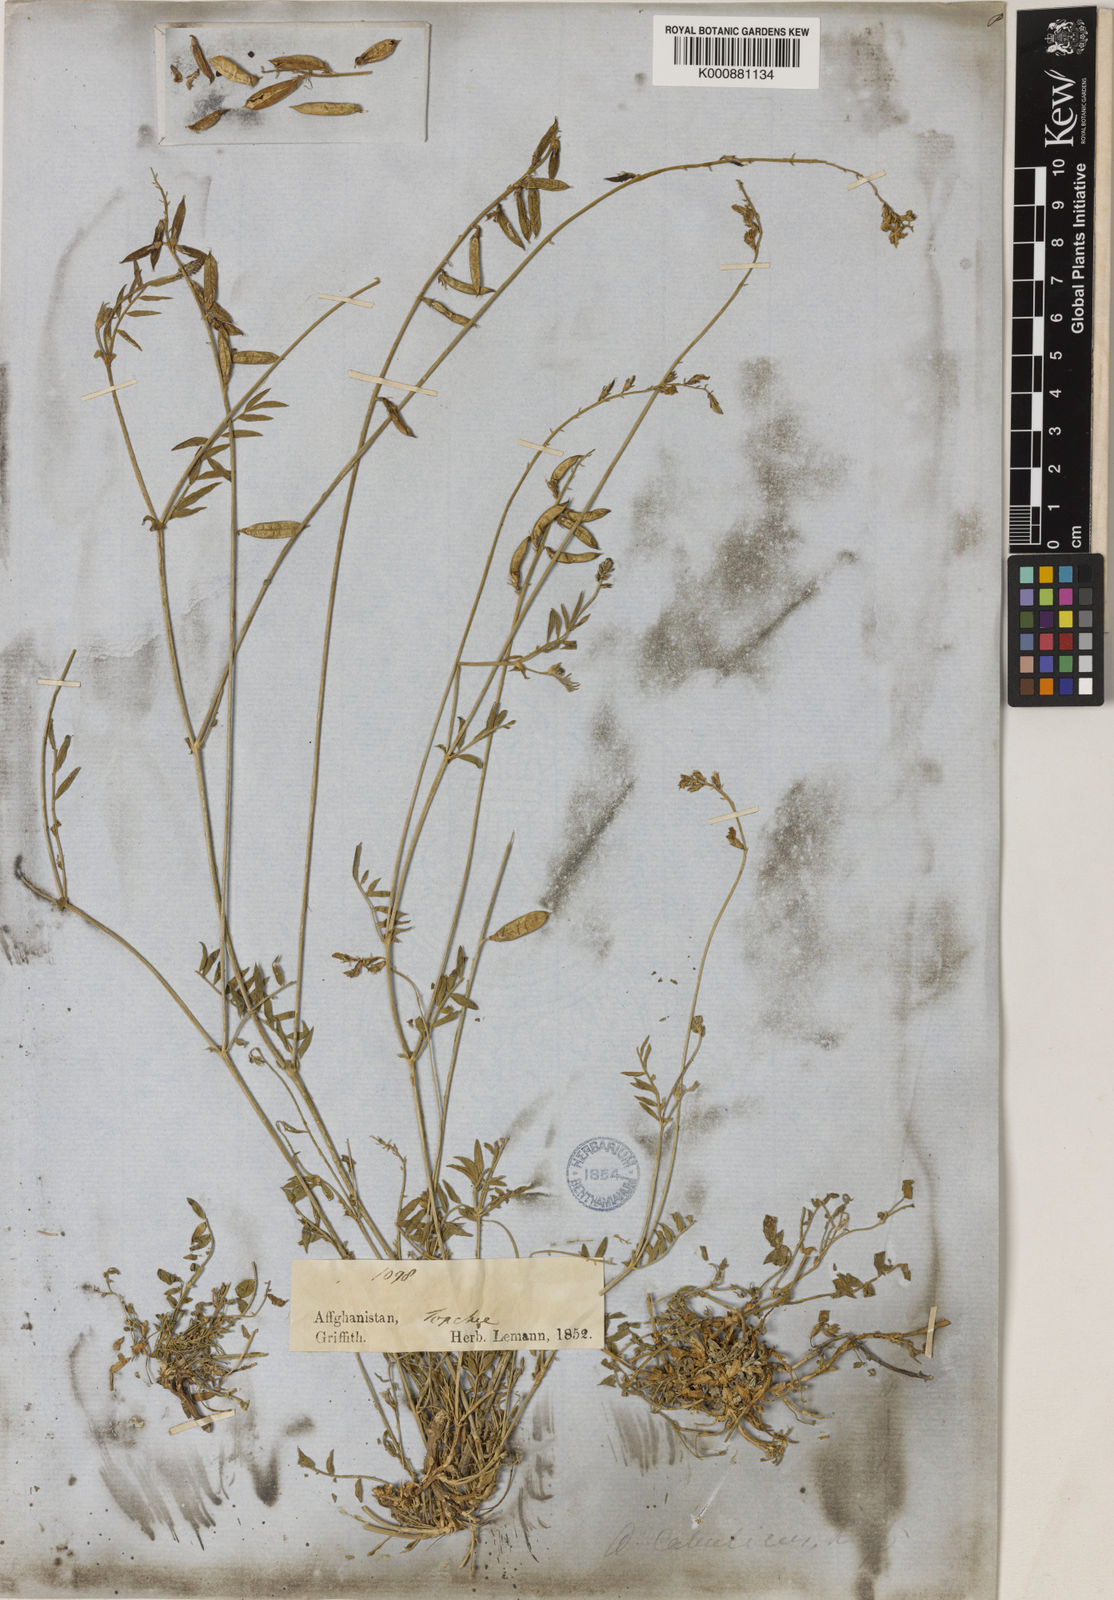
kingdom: Plantae
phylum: Tracheophyta
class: Magnoliopsida
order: Fabales
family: Fabaceae
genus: Oxytropis
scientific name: Oxytropis cabulica
